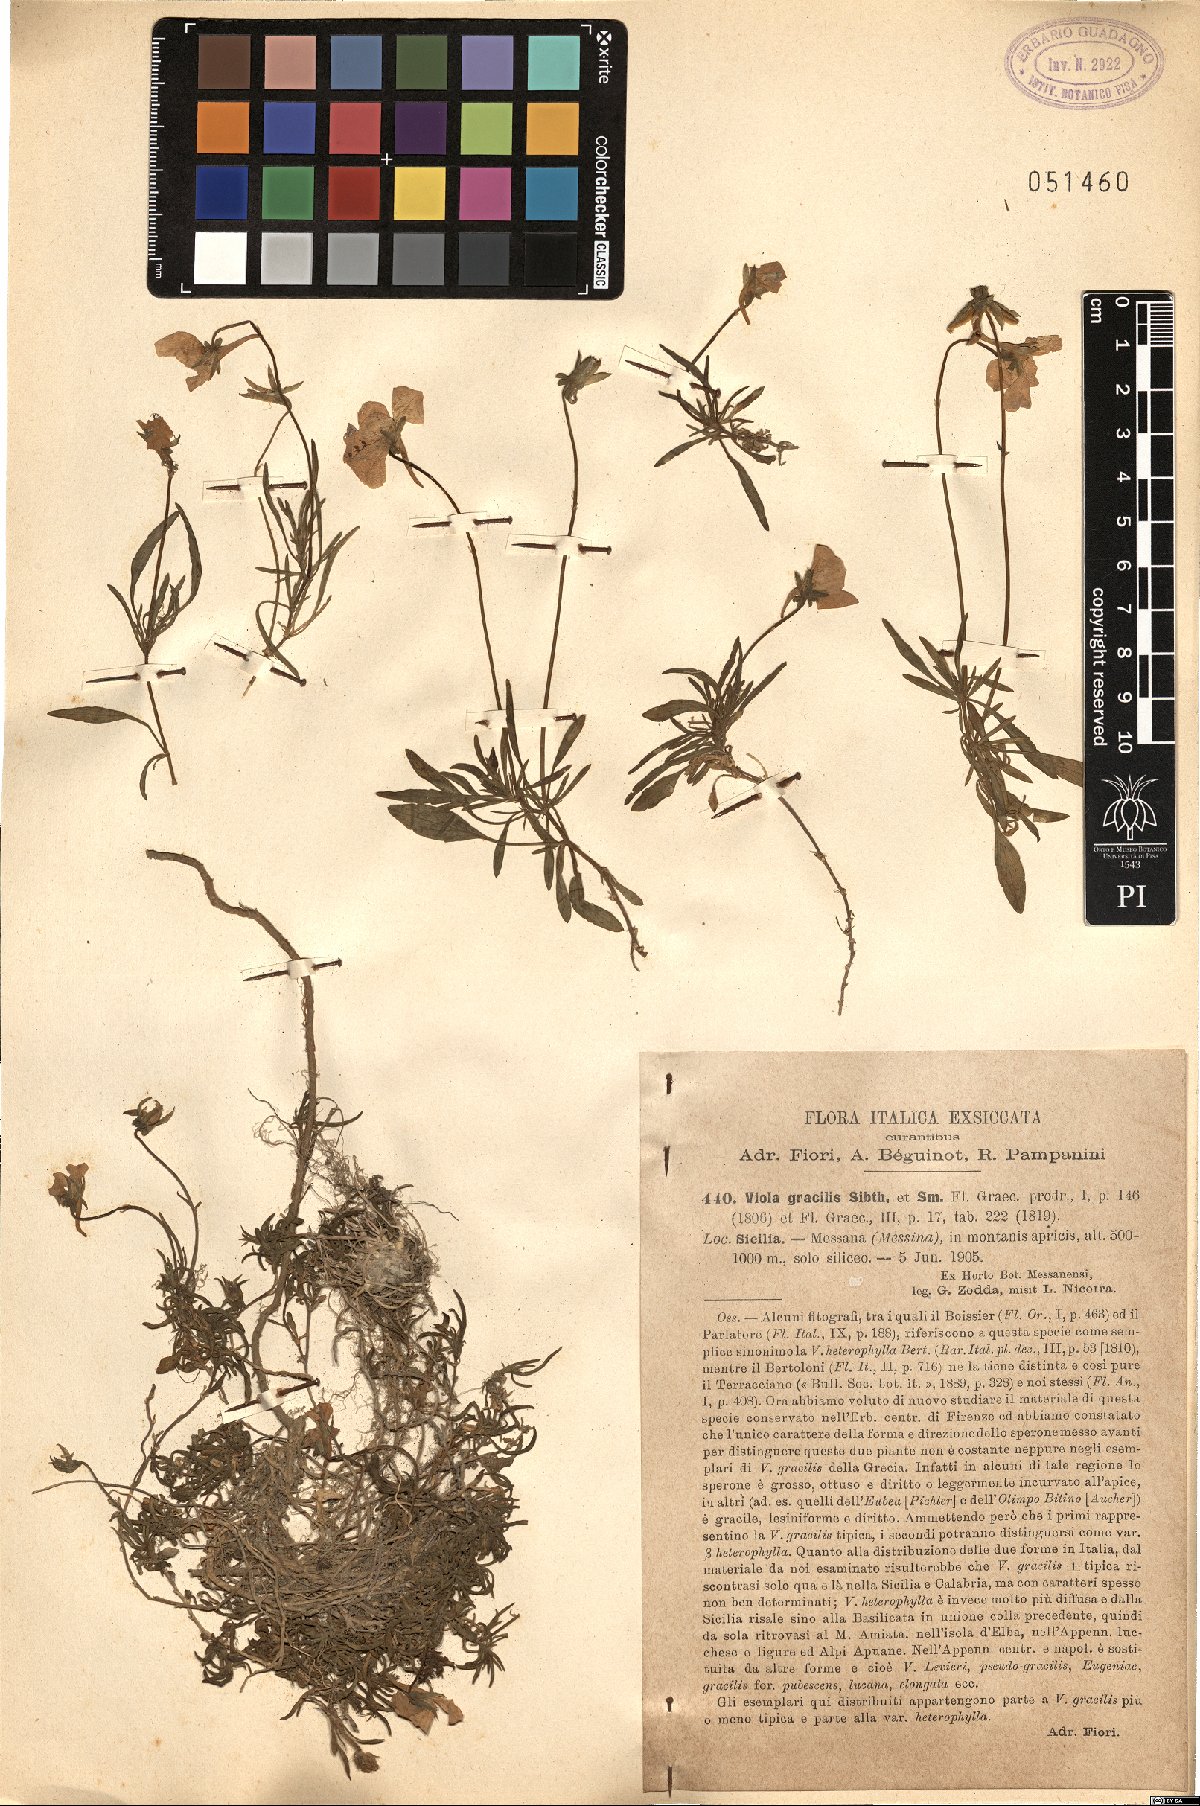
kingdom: Plantae
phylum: Tracheophyta
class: Magnoliopsida
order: Malpighiales
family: Violaceae
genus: Viola
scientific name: Viola gracilis
